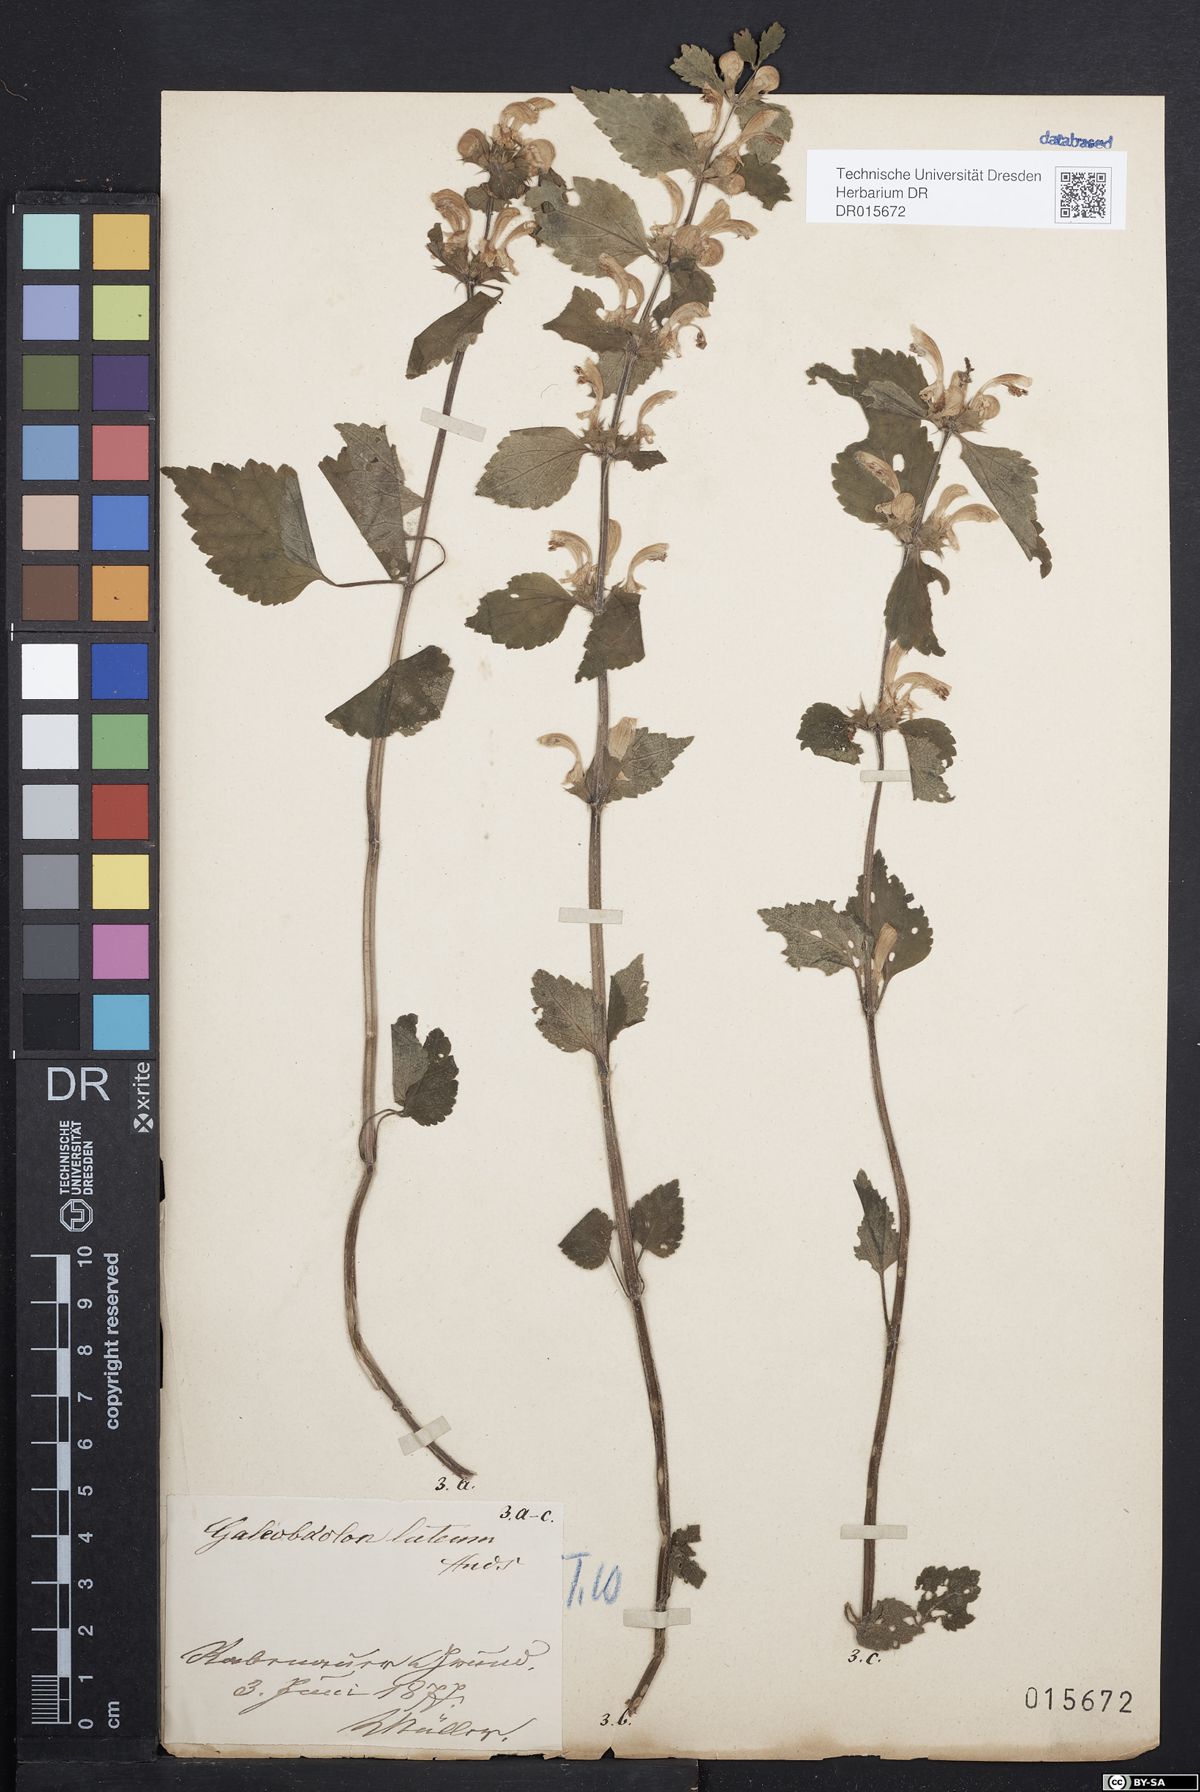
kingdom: Plantae
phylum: Tracheophyta
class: Magnoliopsida
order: Lamiales
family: Lamiaceae
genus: Lamium
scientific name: Lamium galeobdolon
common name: Yellow archangel
